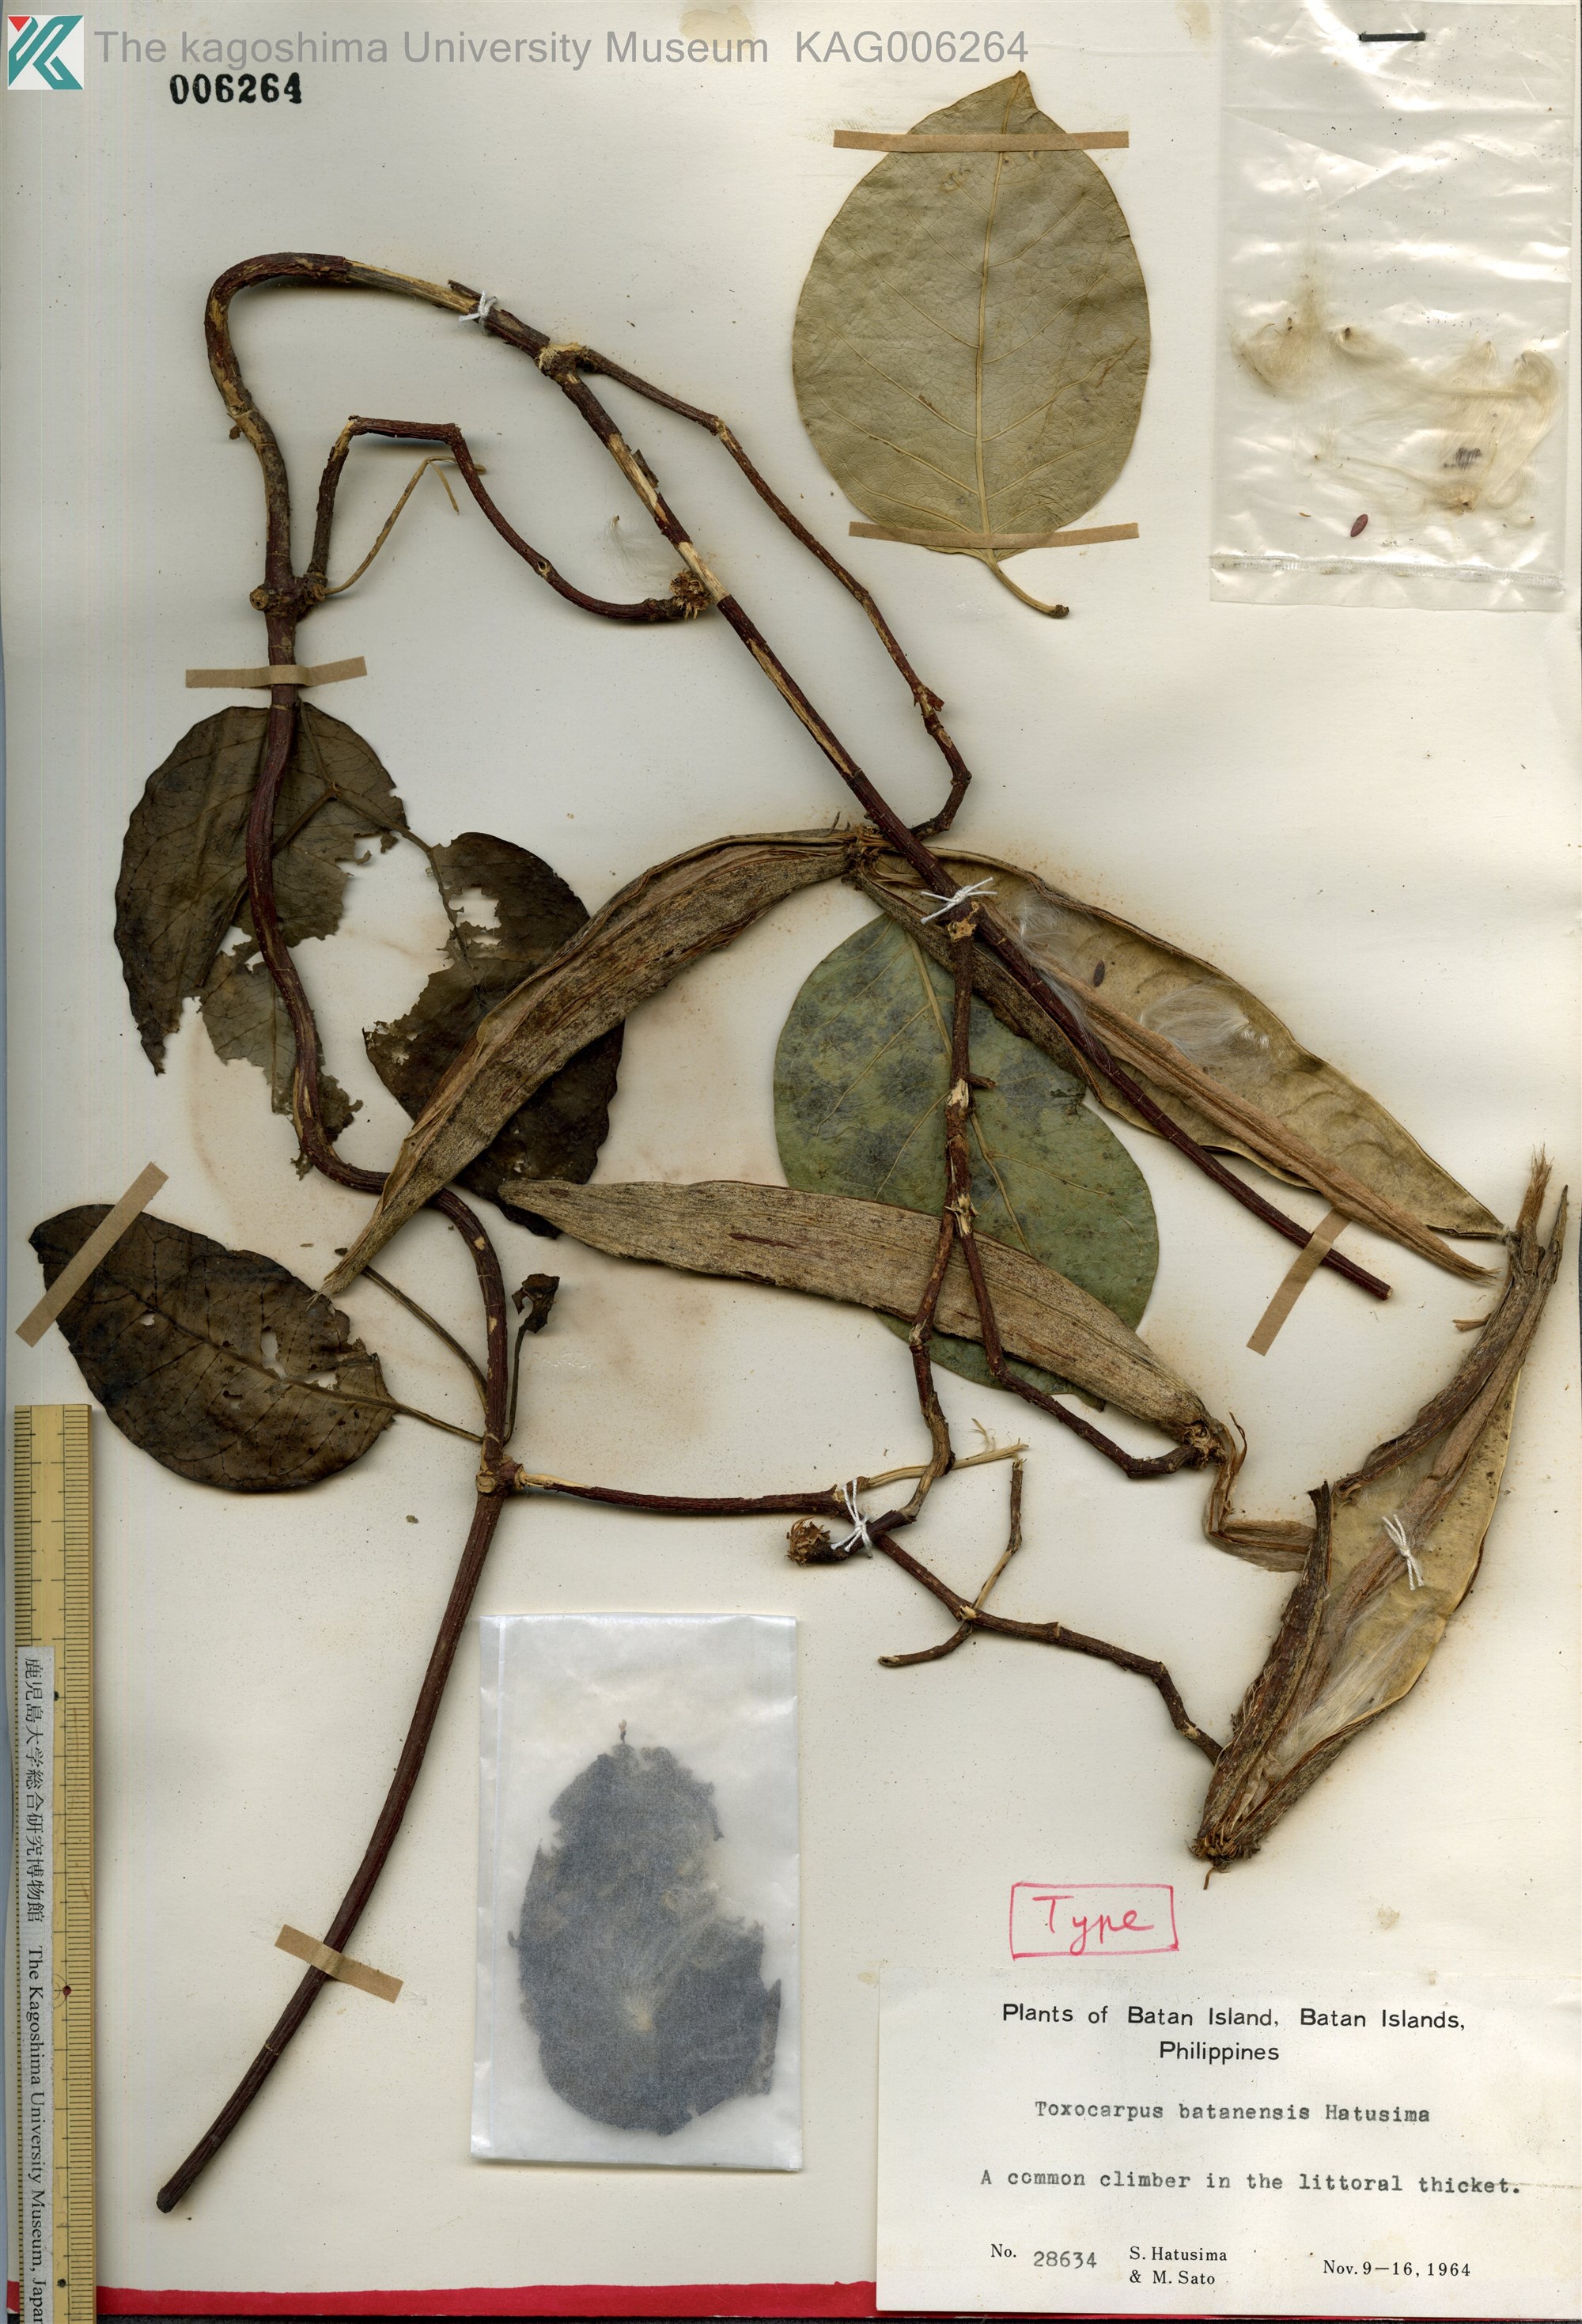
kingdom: Plantae
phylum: Tracheophyta
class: Magnoliopsida
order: Gentianales
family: Apocynaceae
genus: Toxocarpus
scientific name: Toxocarpus batanensis
